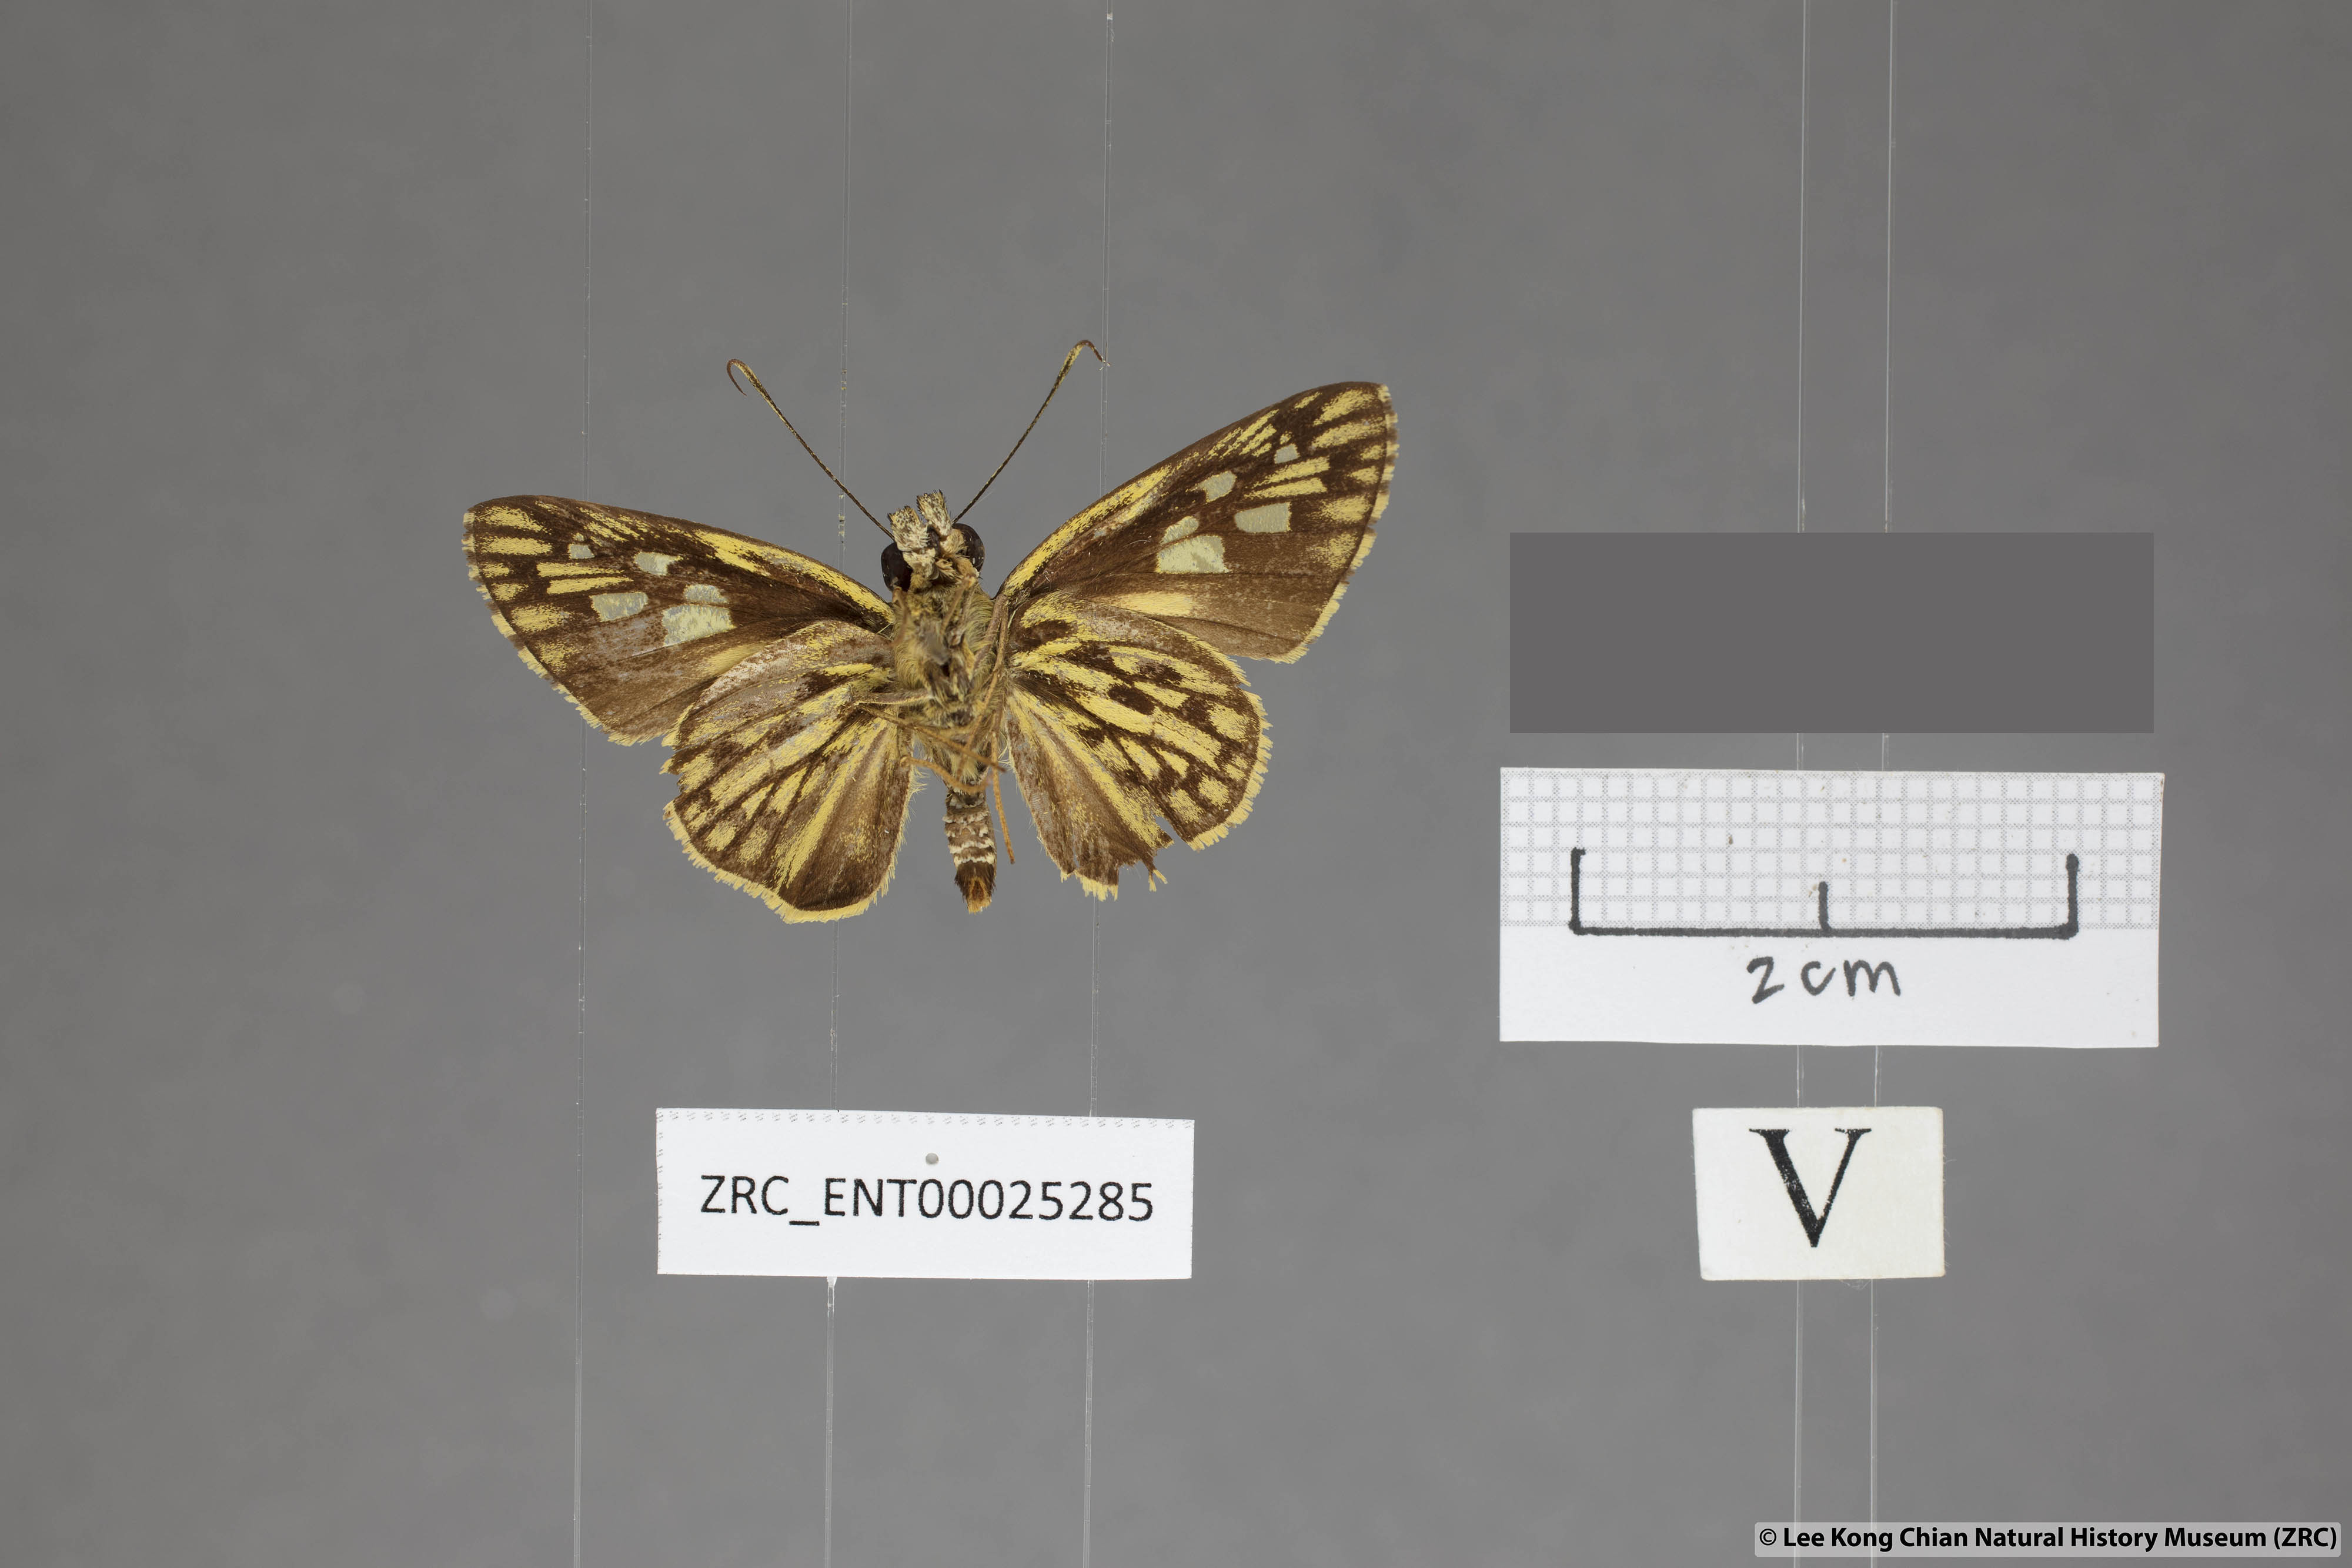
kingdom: Animalia
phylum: Arthropoda
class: Insecta
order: Lepidoptera
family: Hesperiidae
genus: Plastingia
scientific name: Plastingia pellonia
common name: Yellow chequered lancer
